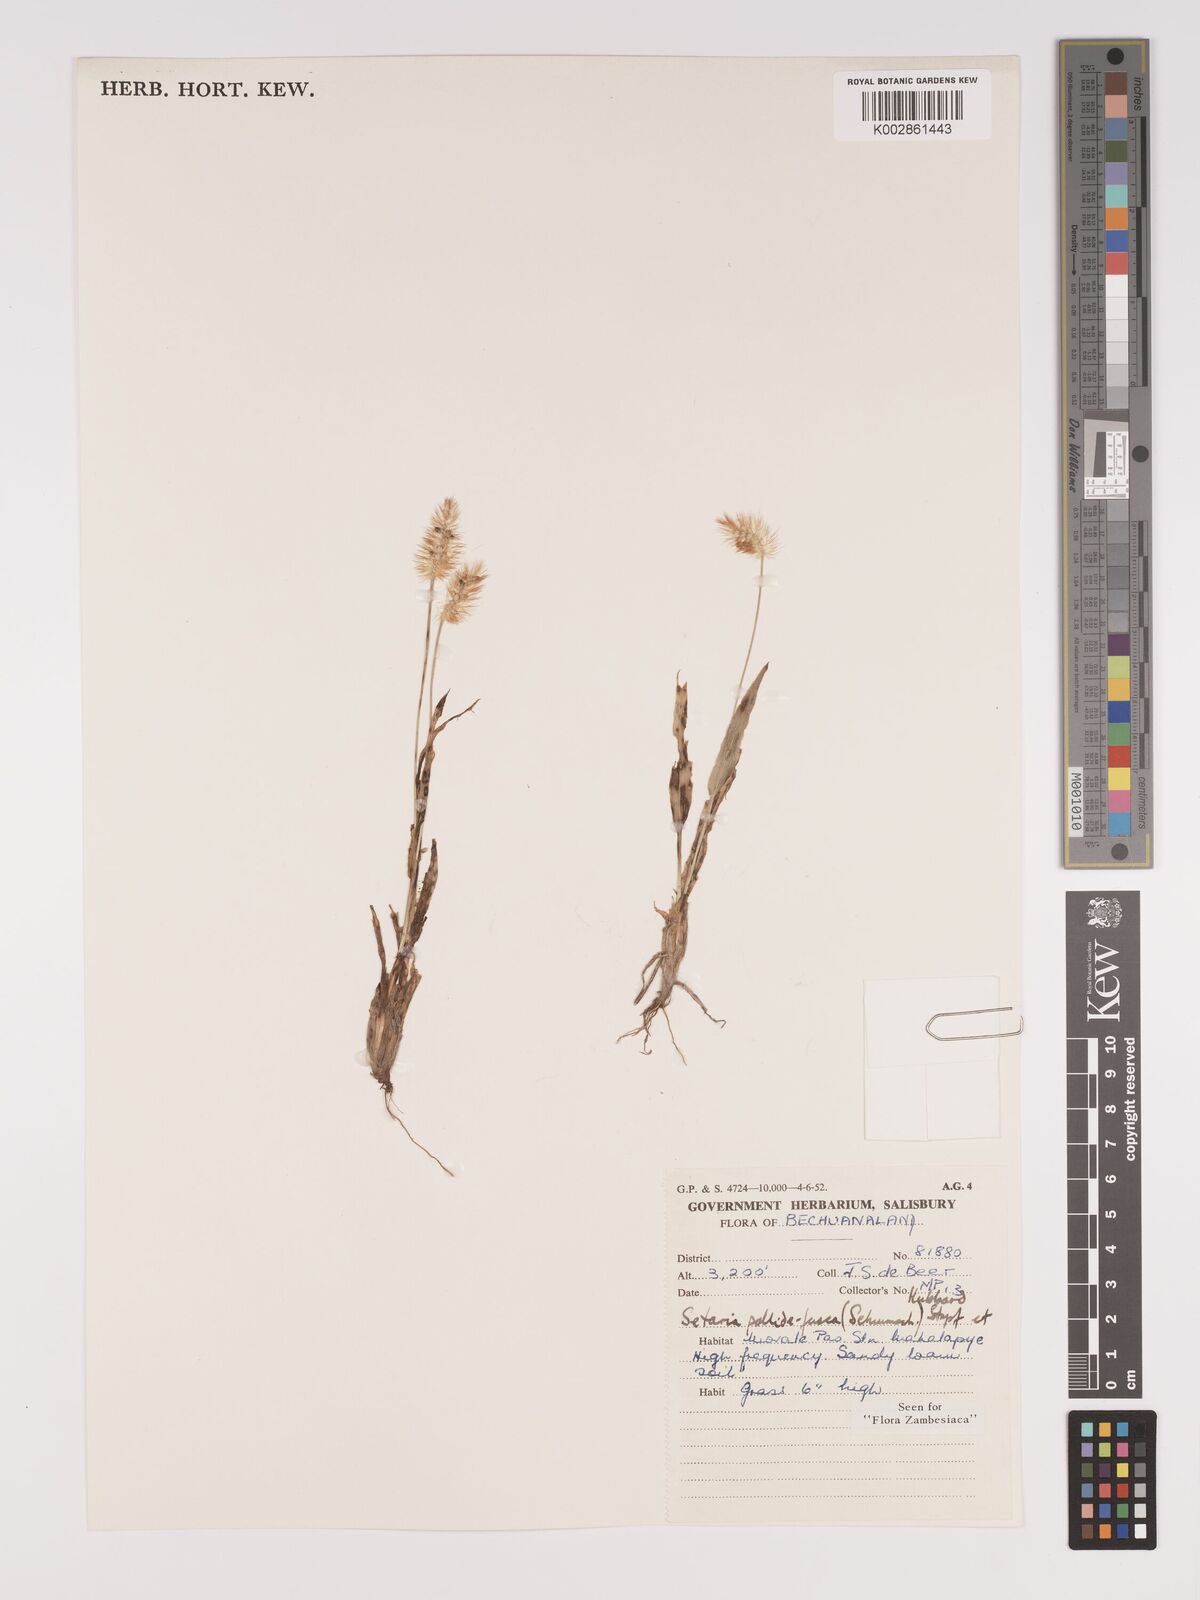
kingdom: Plantae
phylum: Tracheophyta
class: Liliopsida
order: Poales
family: Poaceae
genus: Setaria
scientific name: Setaria pumila
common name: Yellow bristle-grass
